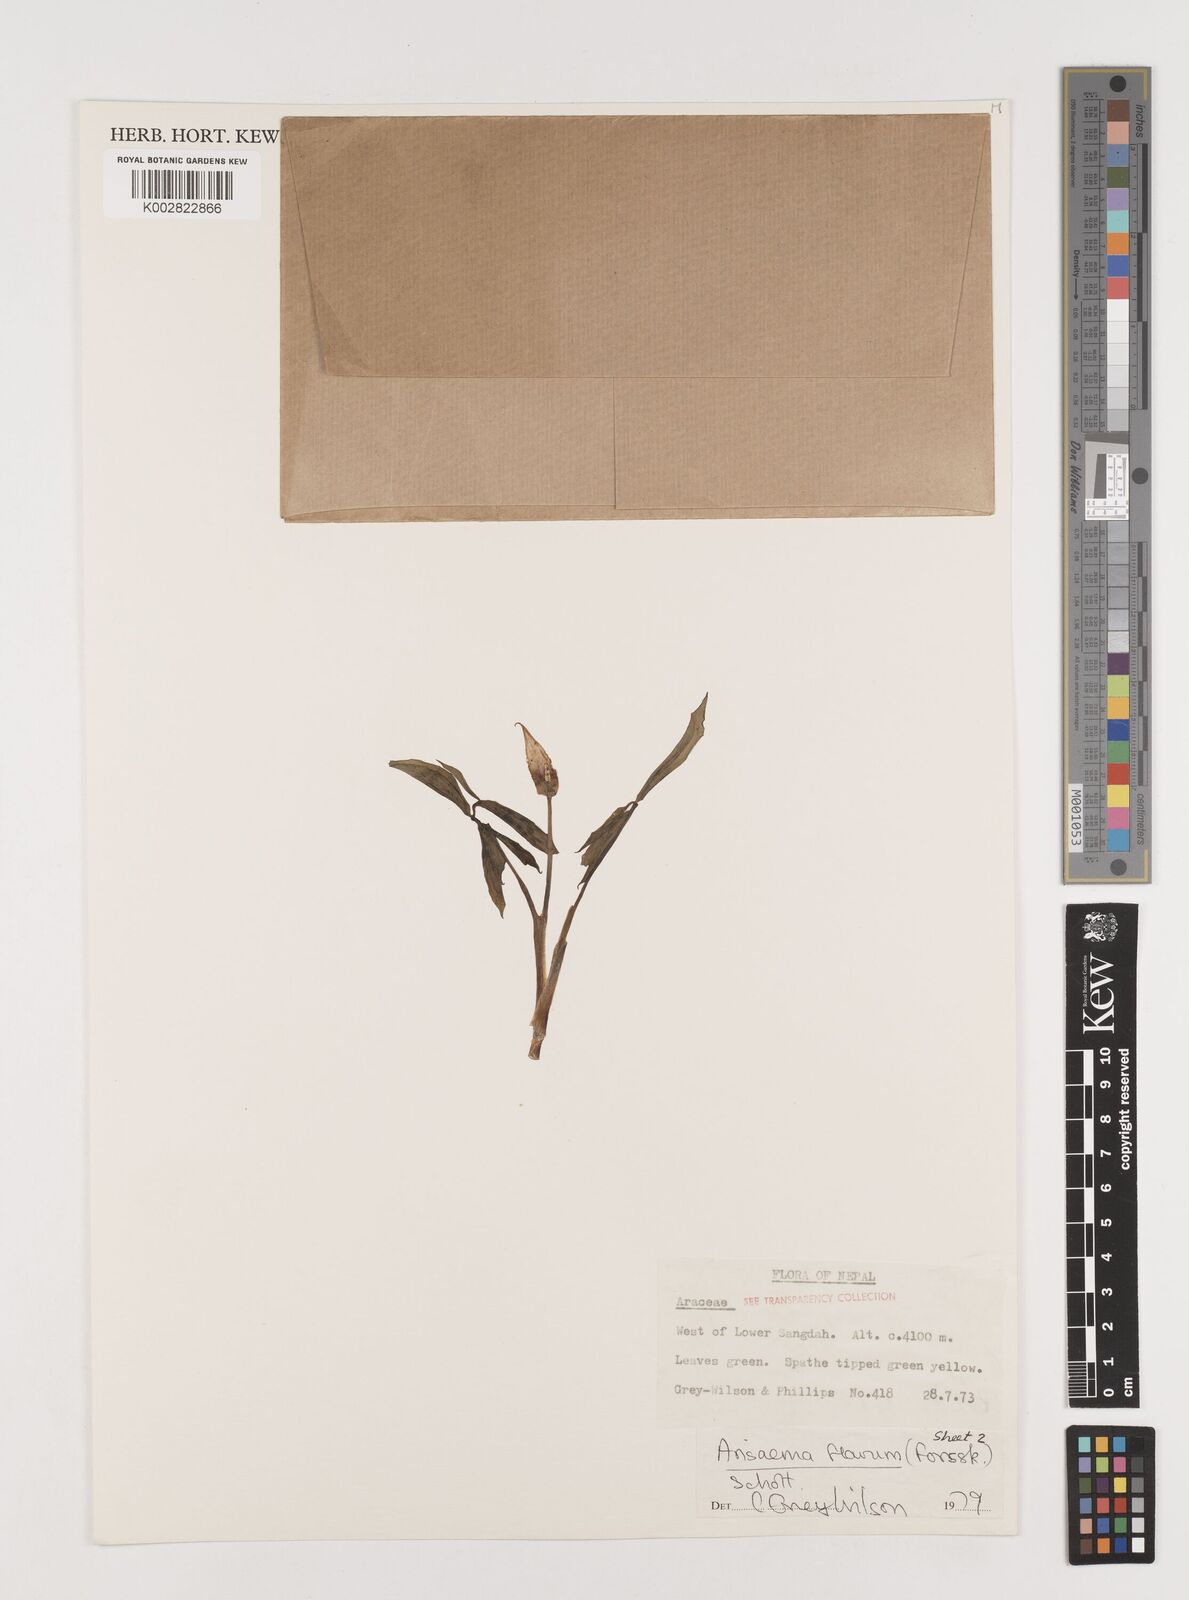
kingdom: Plantae
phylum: Tracheophyta
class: Liliopsida
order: Alismatales
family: Araceae
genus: Arisaema
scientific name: Arisaema flavum
